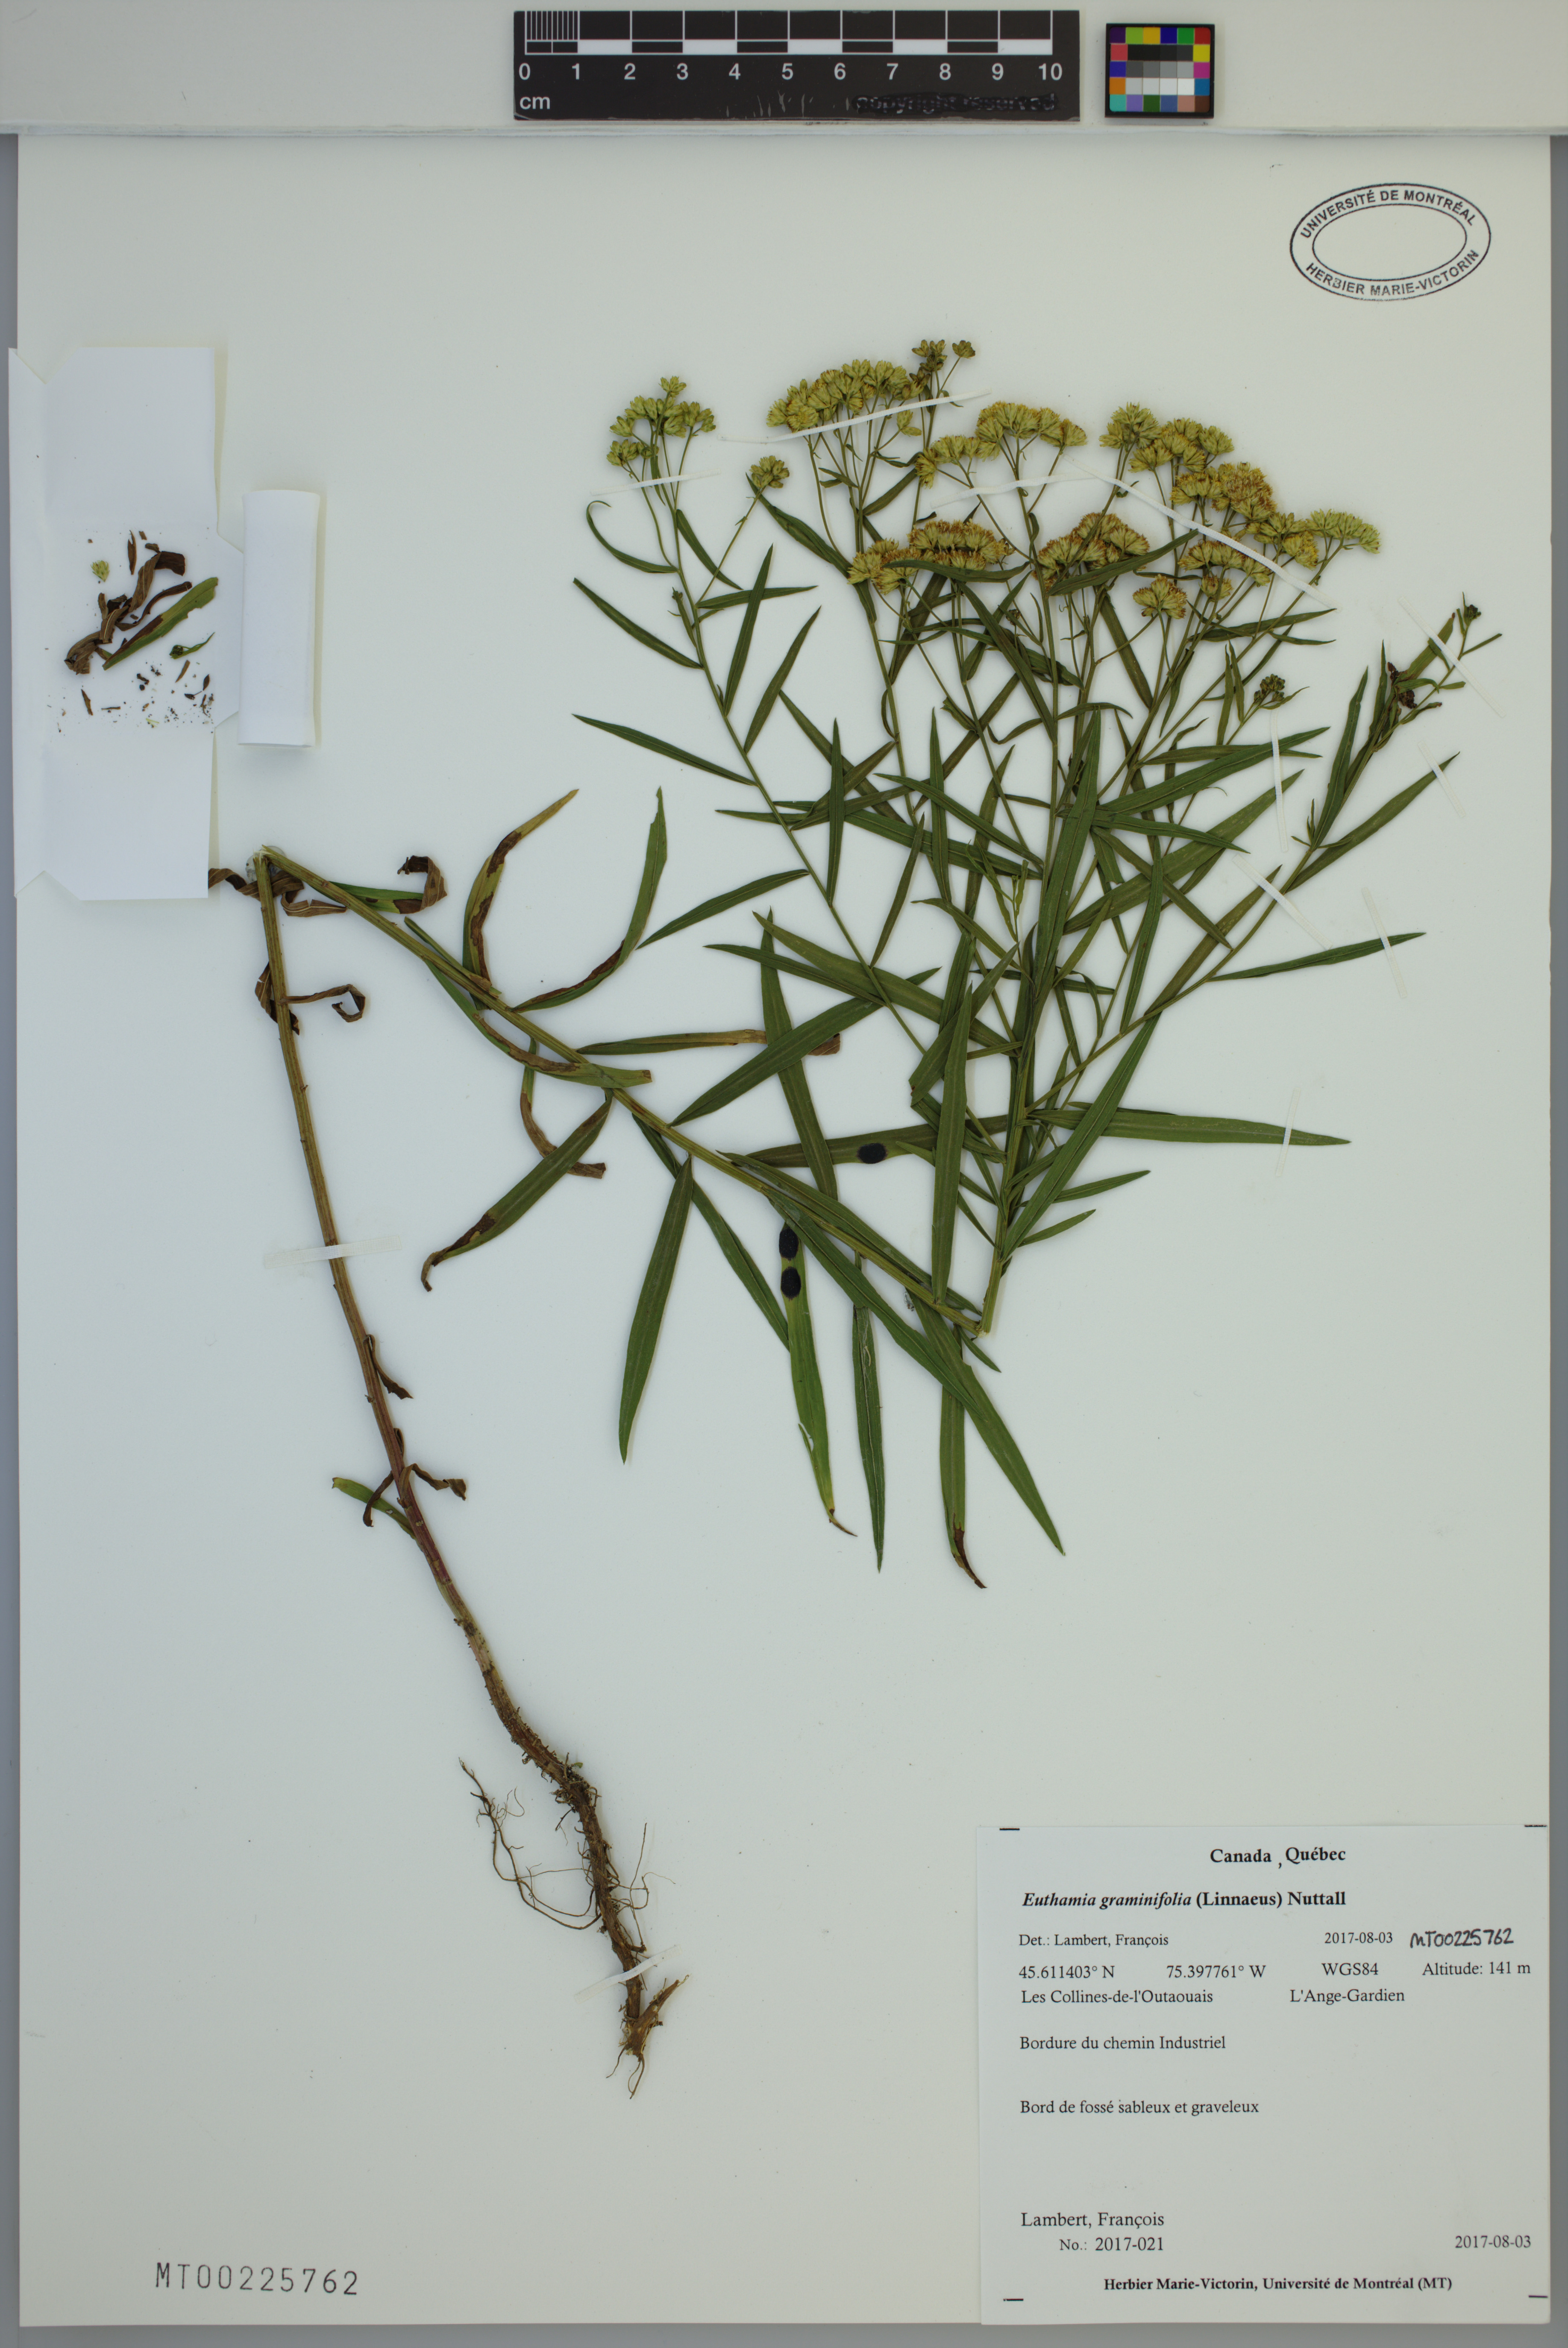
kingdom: Plantae
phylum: Tracheophyta
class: Magnoliopsida
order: Asterales
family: Asteraceae
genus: Euthamia
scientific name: Euthamia graminifolia
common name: Common goldentop
